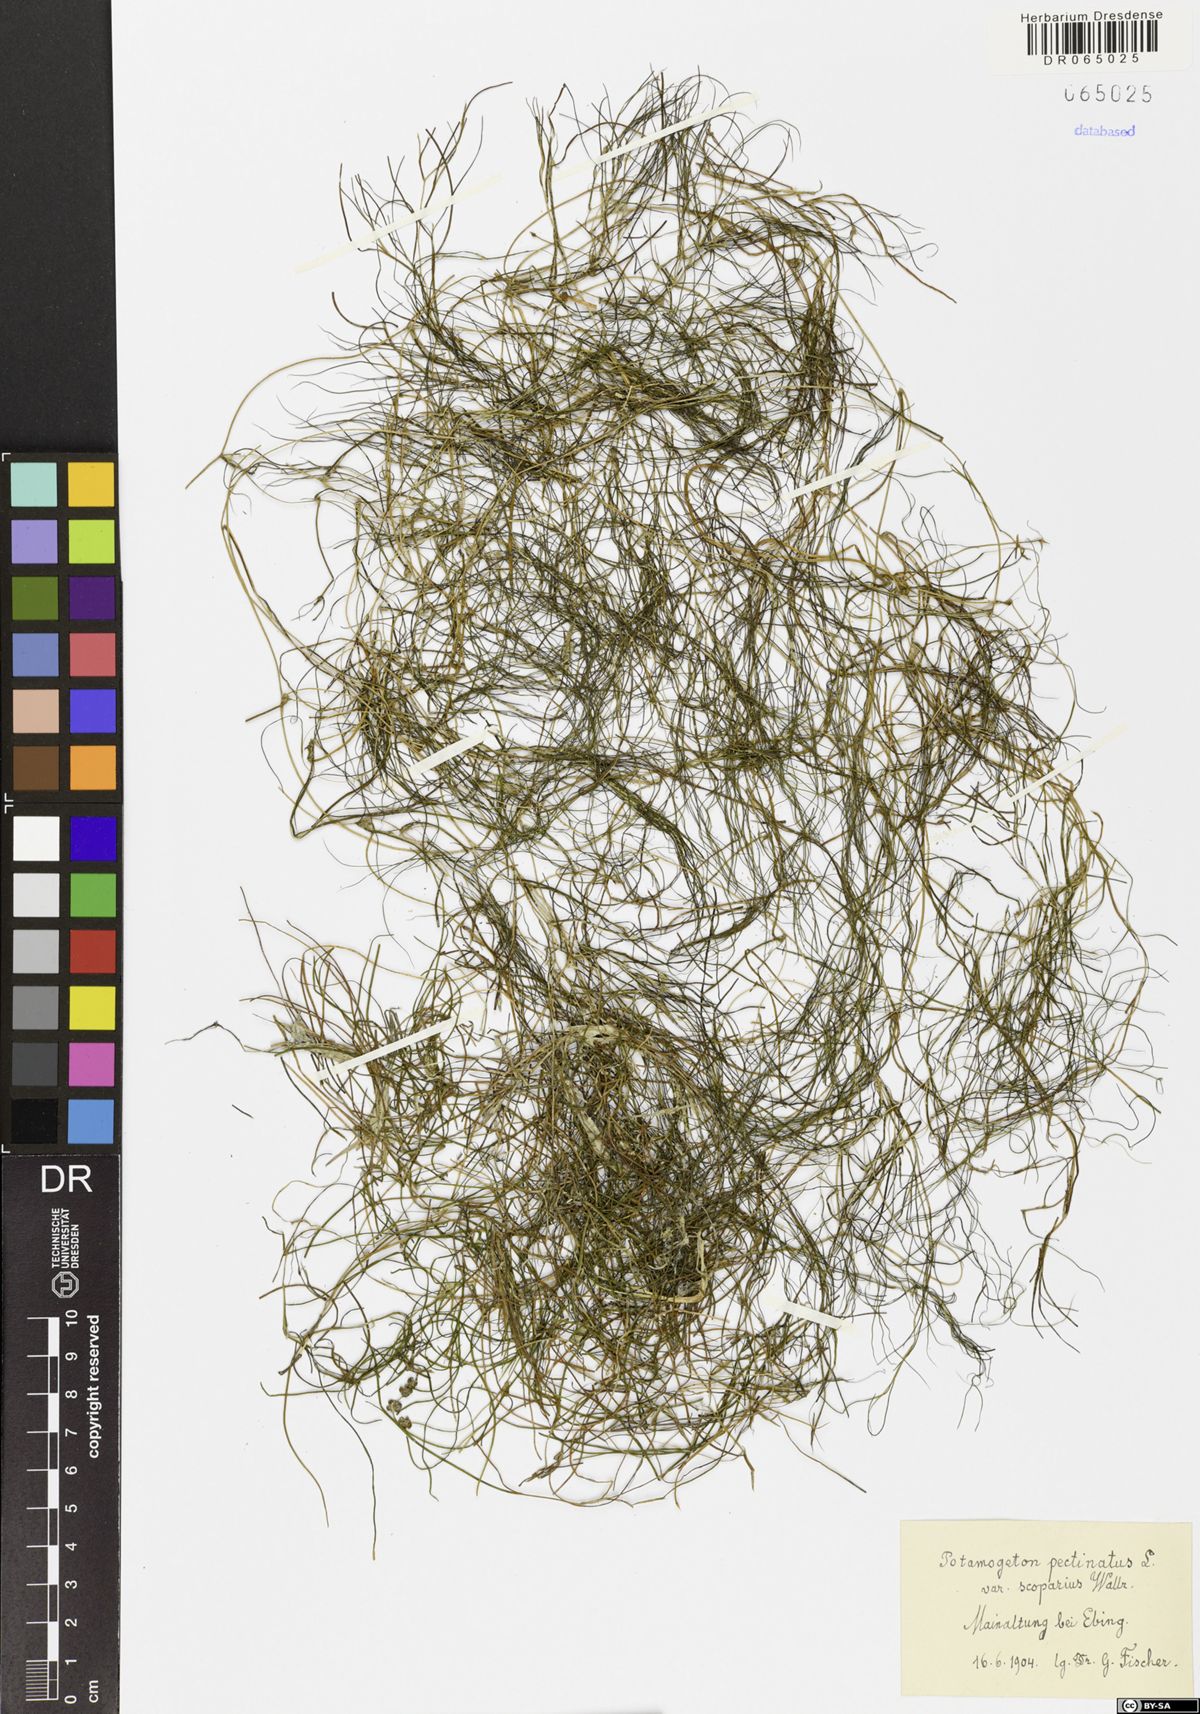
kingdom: Plantae
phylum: Tracheophyta
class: Liliopsida
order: Alismatales
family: Potamogetonaceae
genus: Stuckenia
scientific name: Stuckenia pectinata
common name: Sago pondweed
